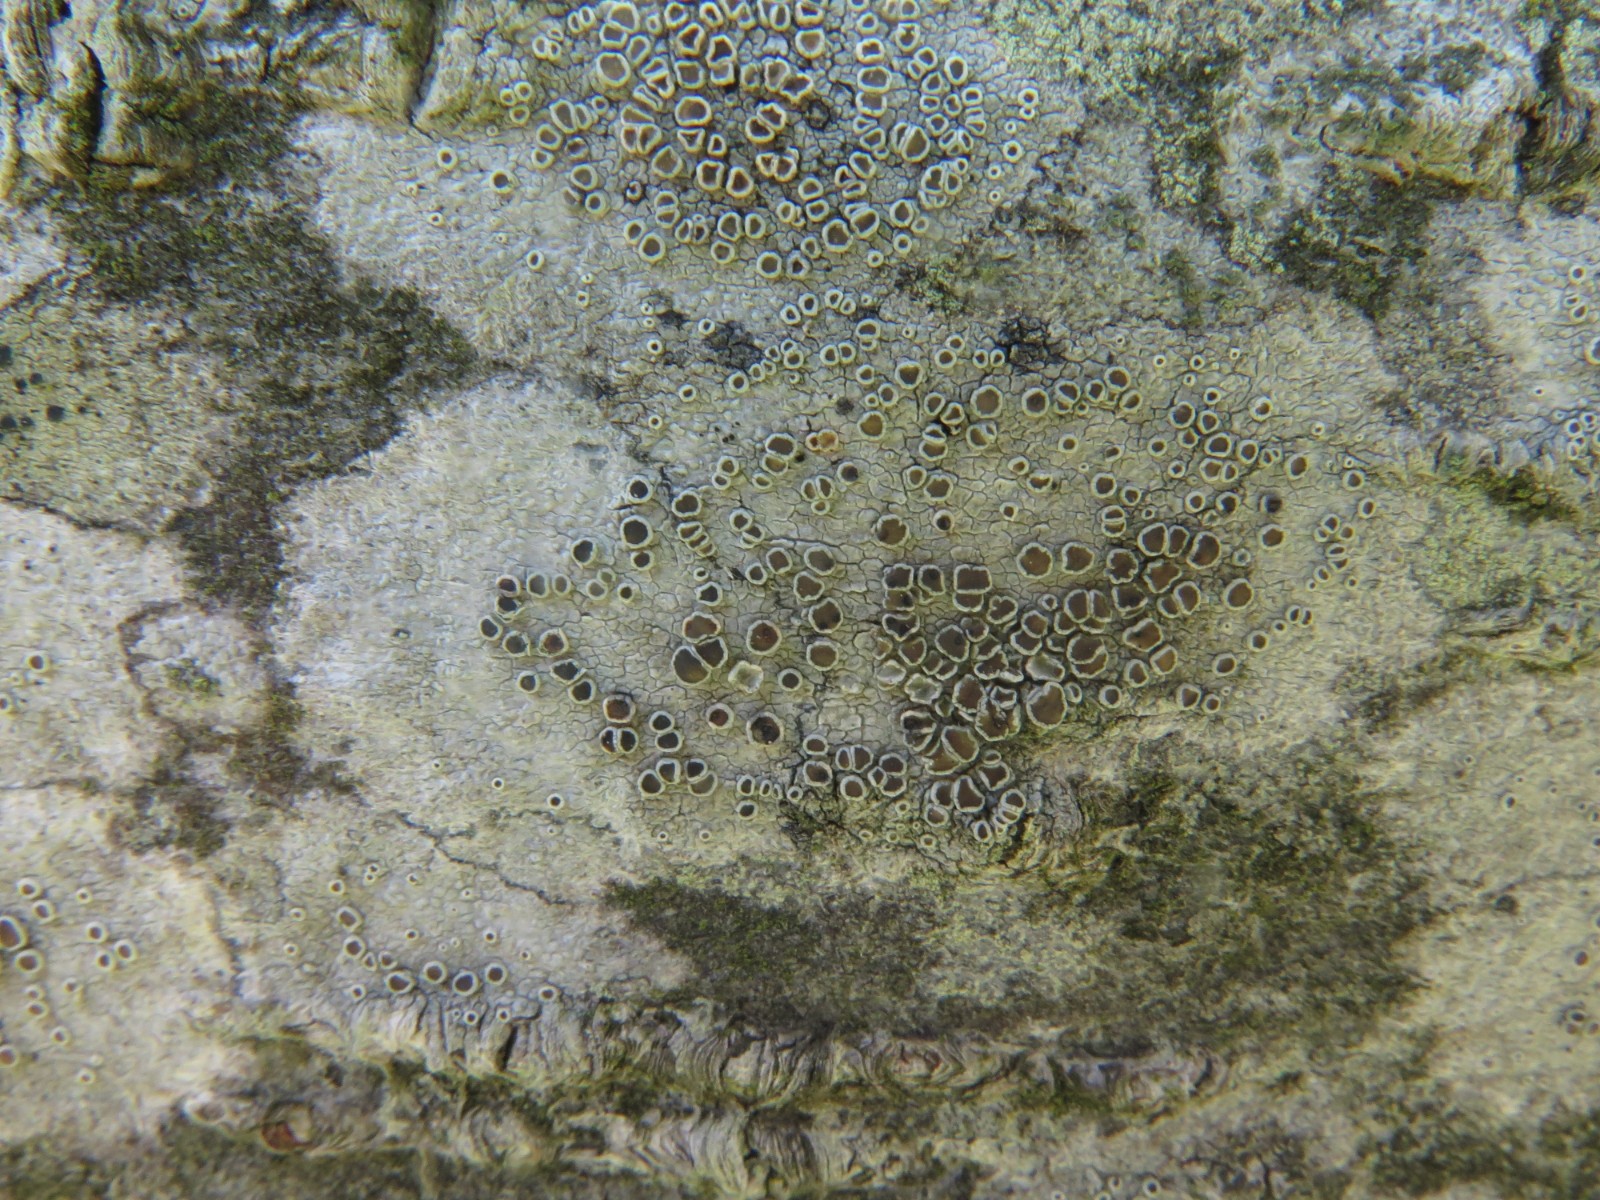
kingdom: Fungi
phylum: Ascomycota
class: Lecanoromycetes
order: Lecanorales
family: Lecanoraceae
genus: Lecanora
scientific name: Lecanora chlarotera
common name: brun kantskivelav
